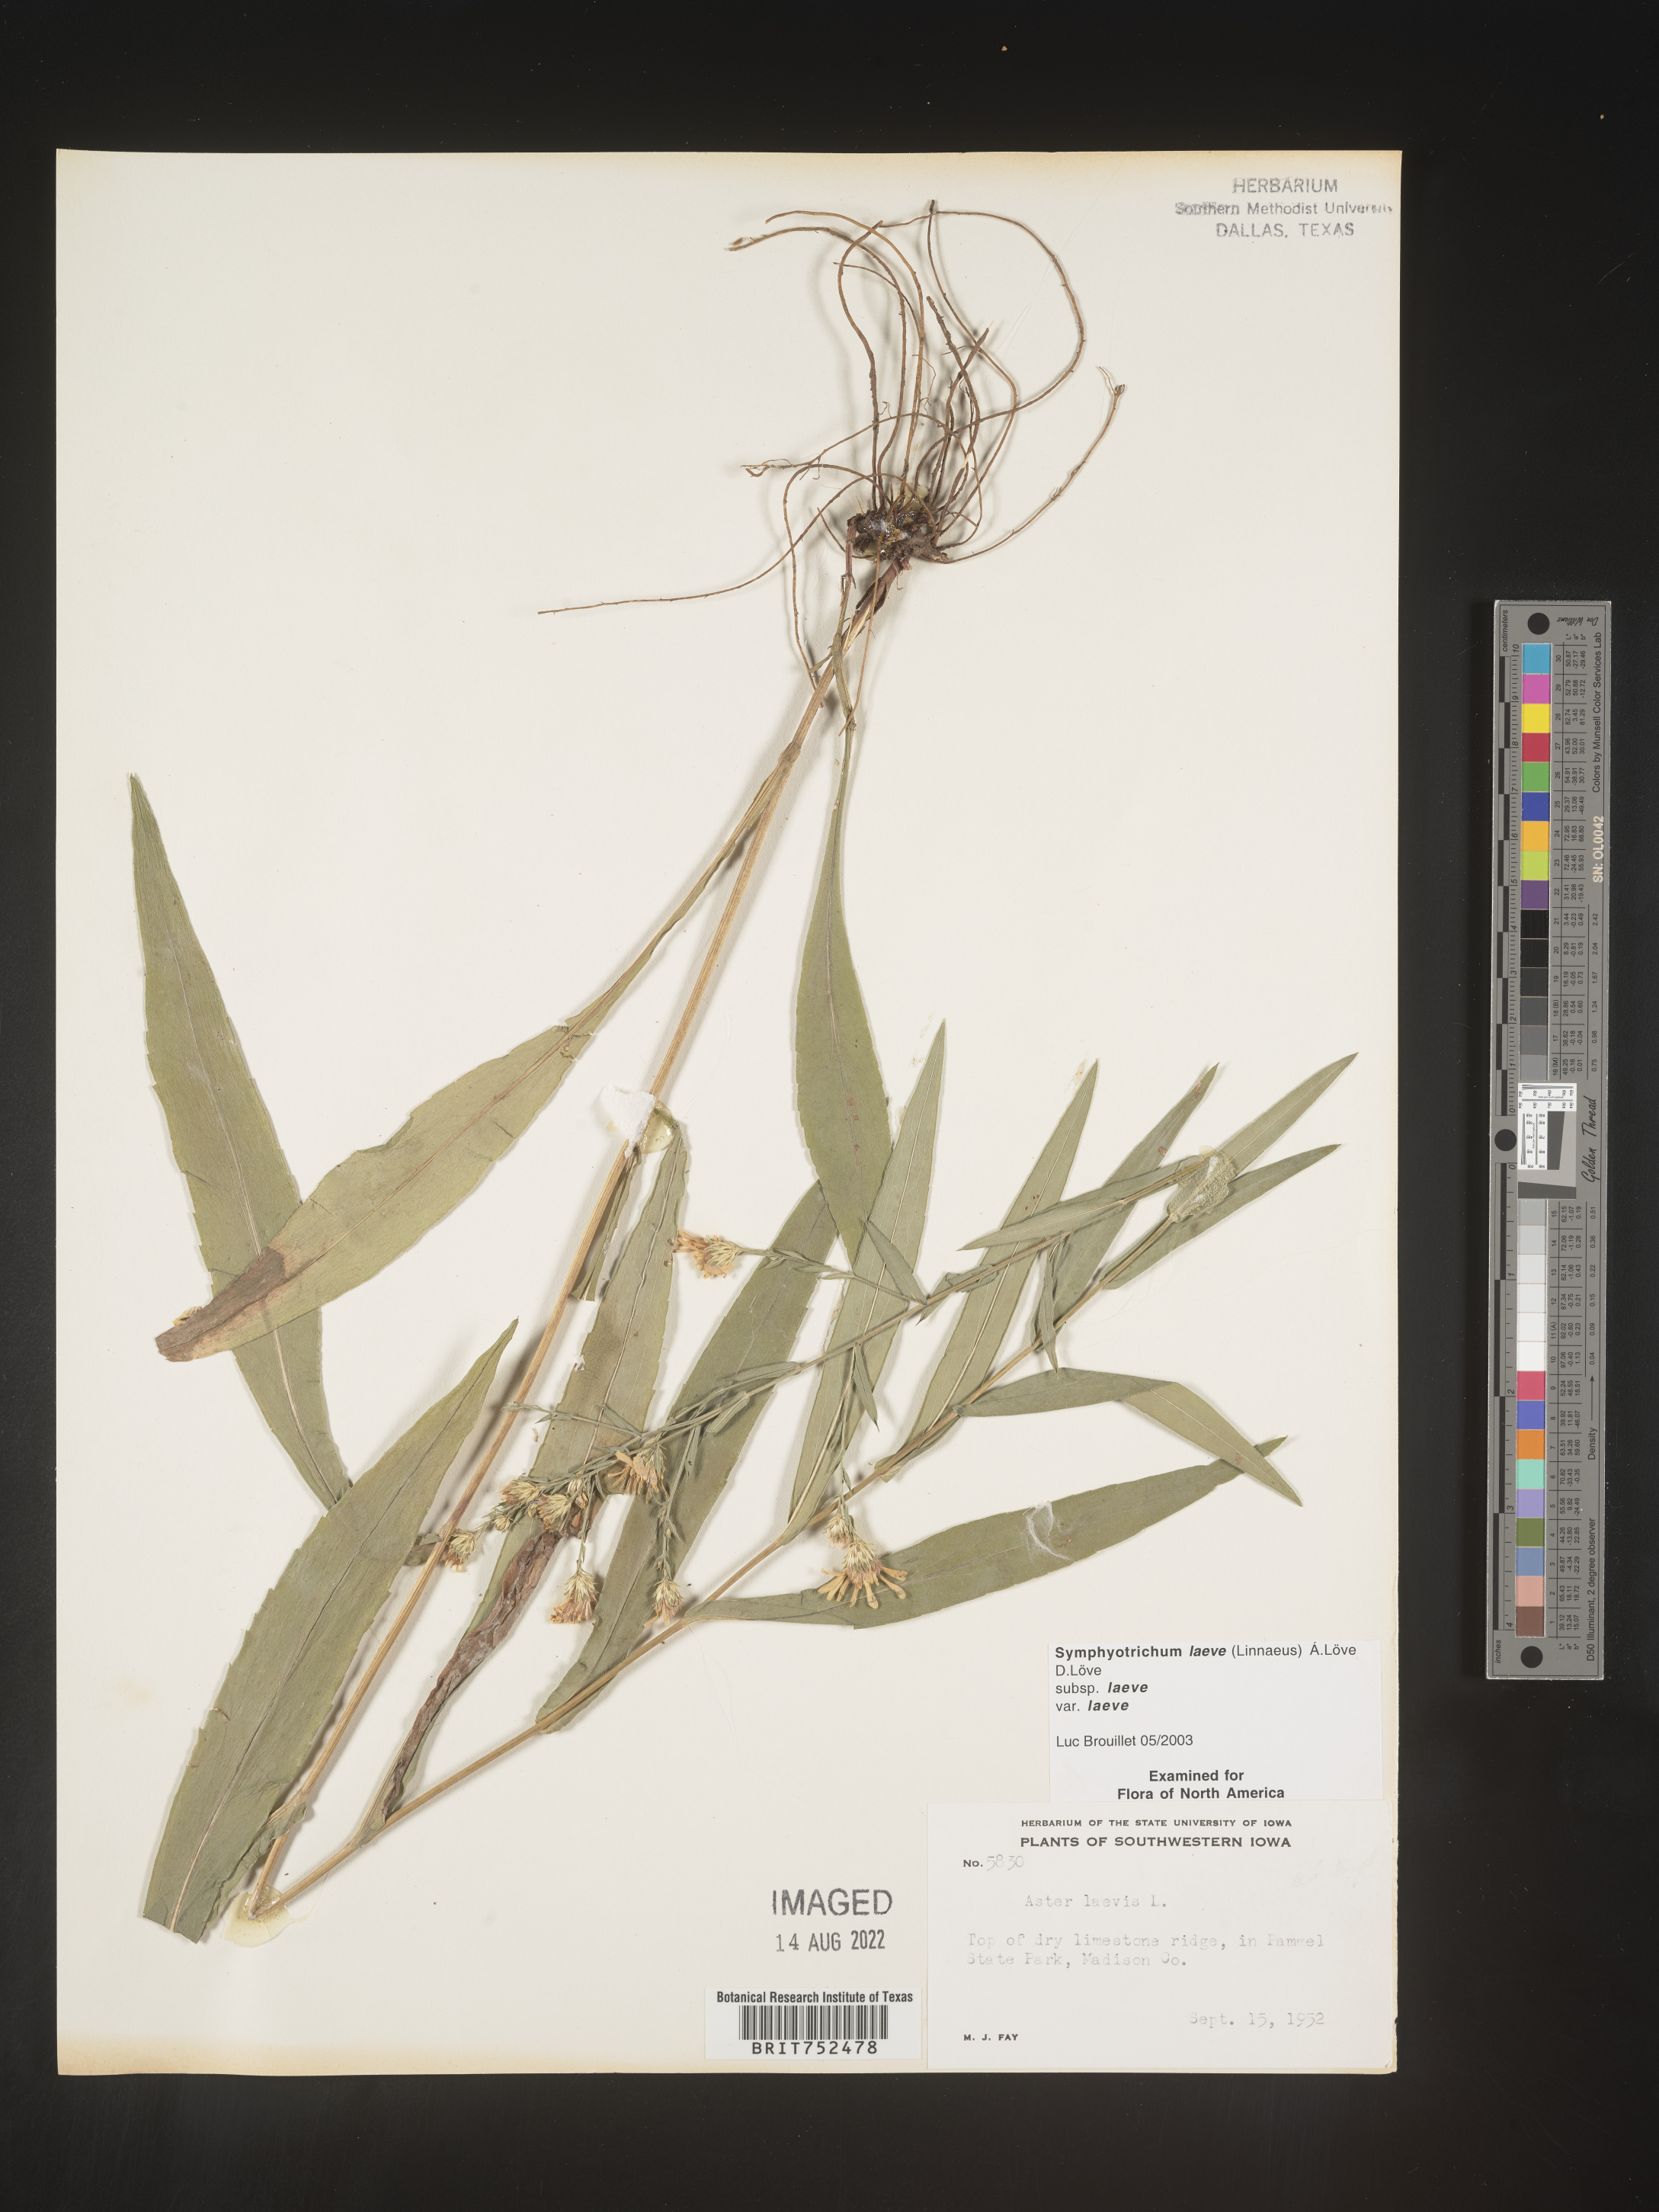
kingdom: Plantae
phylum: Tracheophyta
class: Magnoliopsida
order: Asterales
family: Asteraceae
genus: Symphyotrichum
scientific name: Symphyotrichum laeve
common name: Glaucous aster
